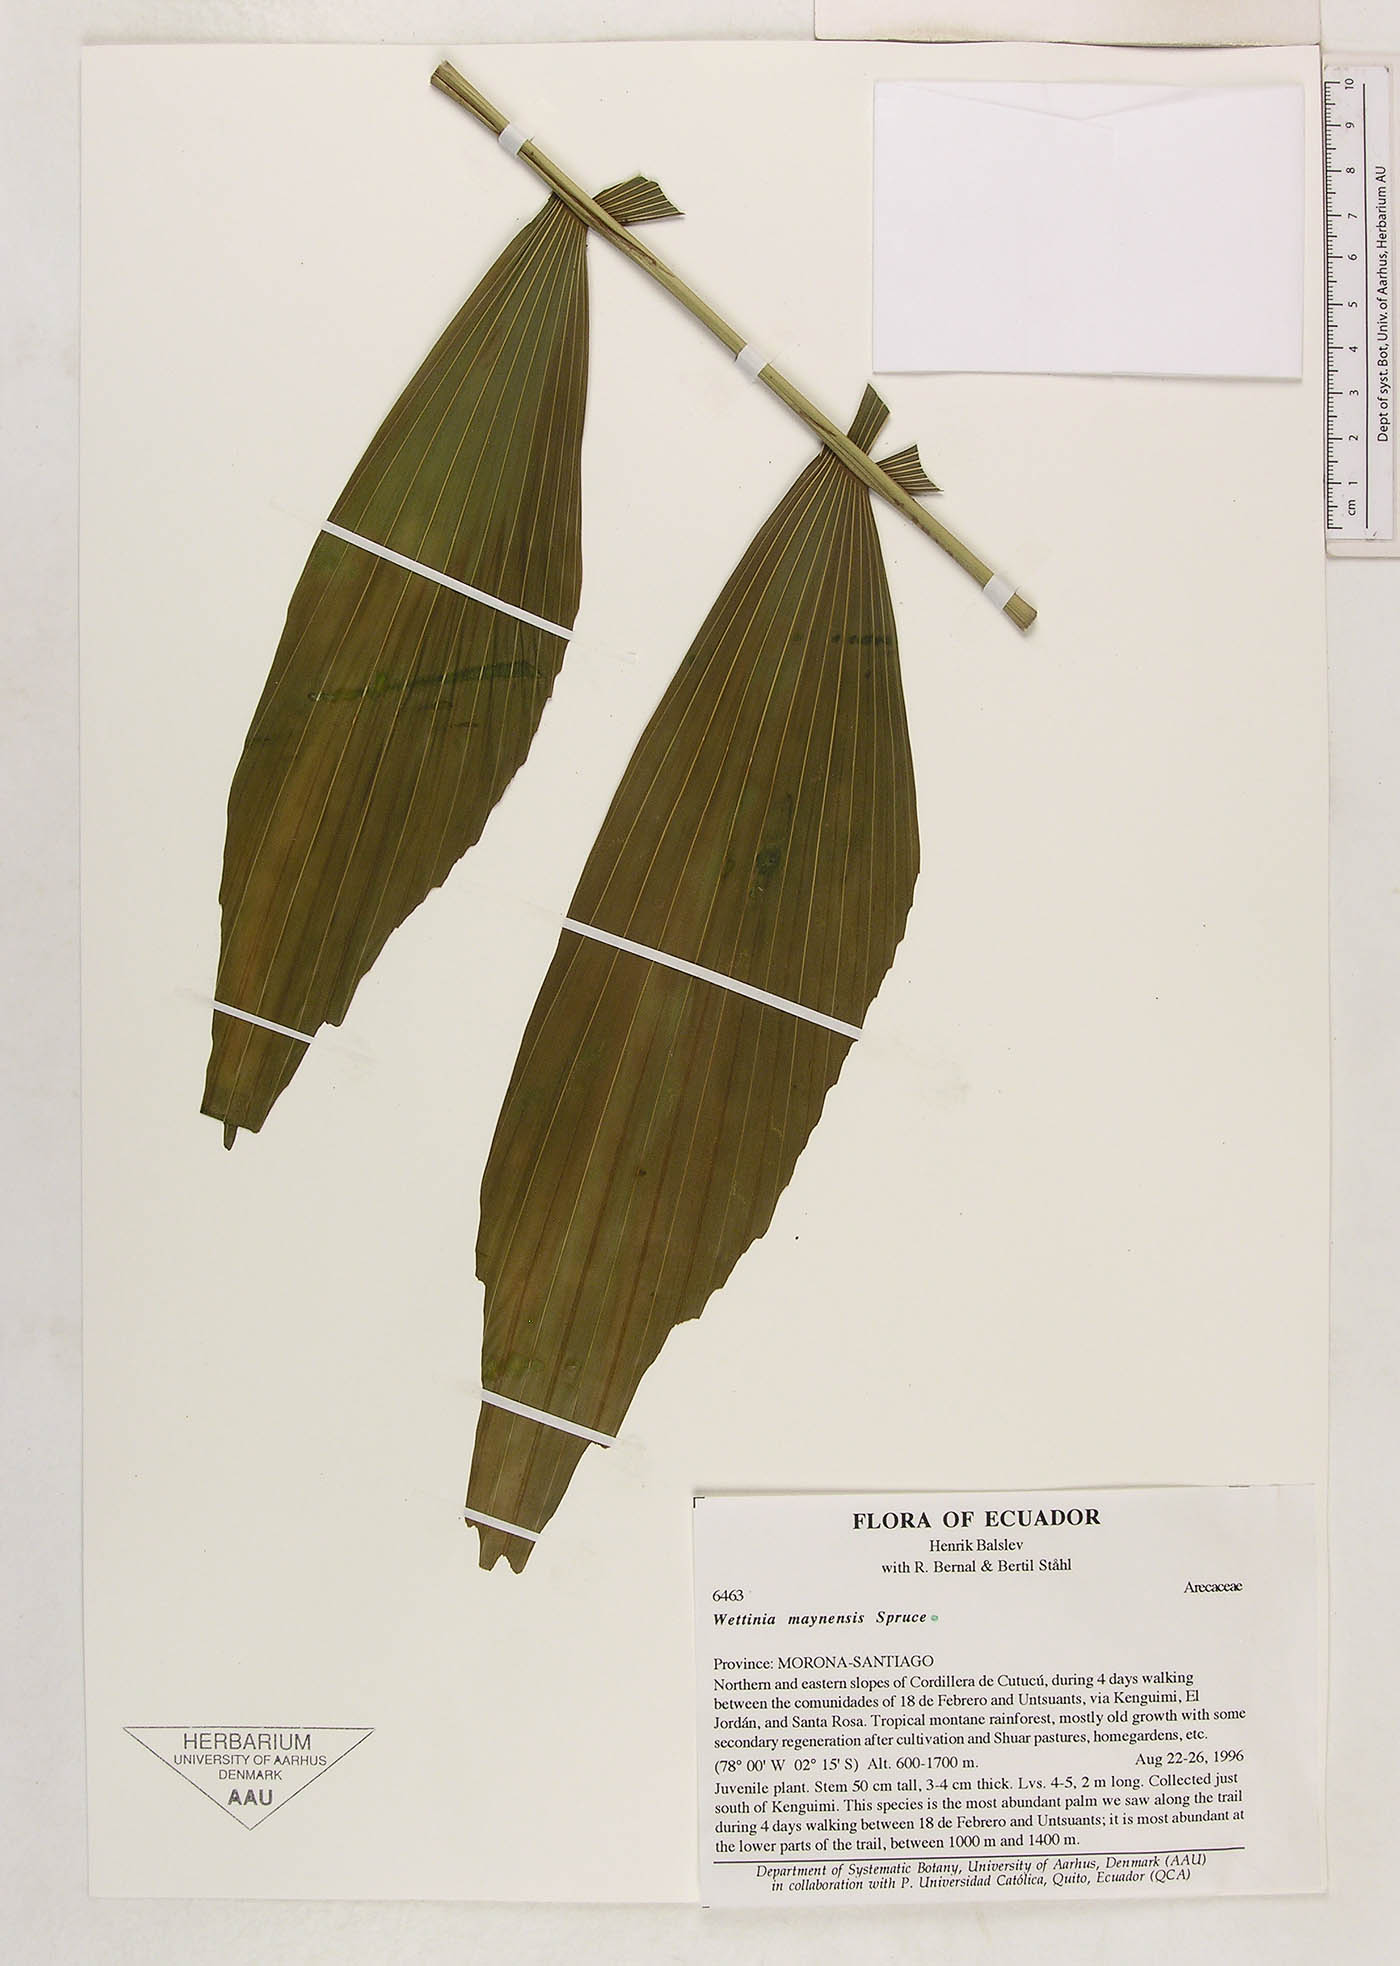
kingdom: Plantae
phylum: Tracheophyta
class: Liliopsida
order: Arecales
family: Arecaceae
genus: Wettinia
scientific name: Wettinia maynensis
